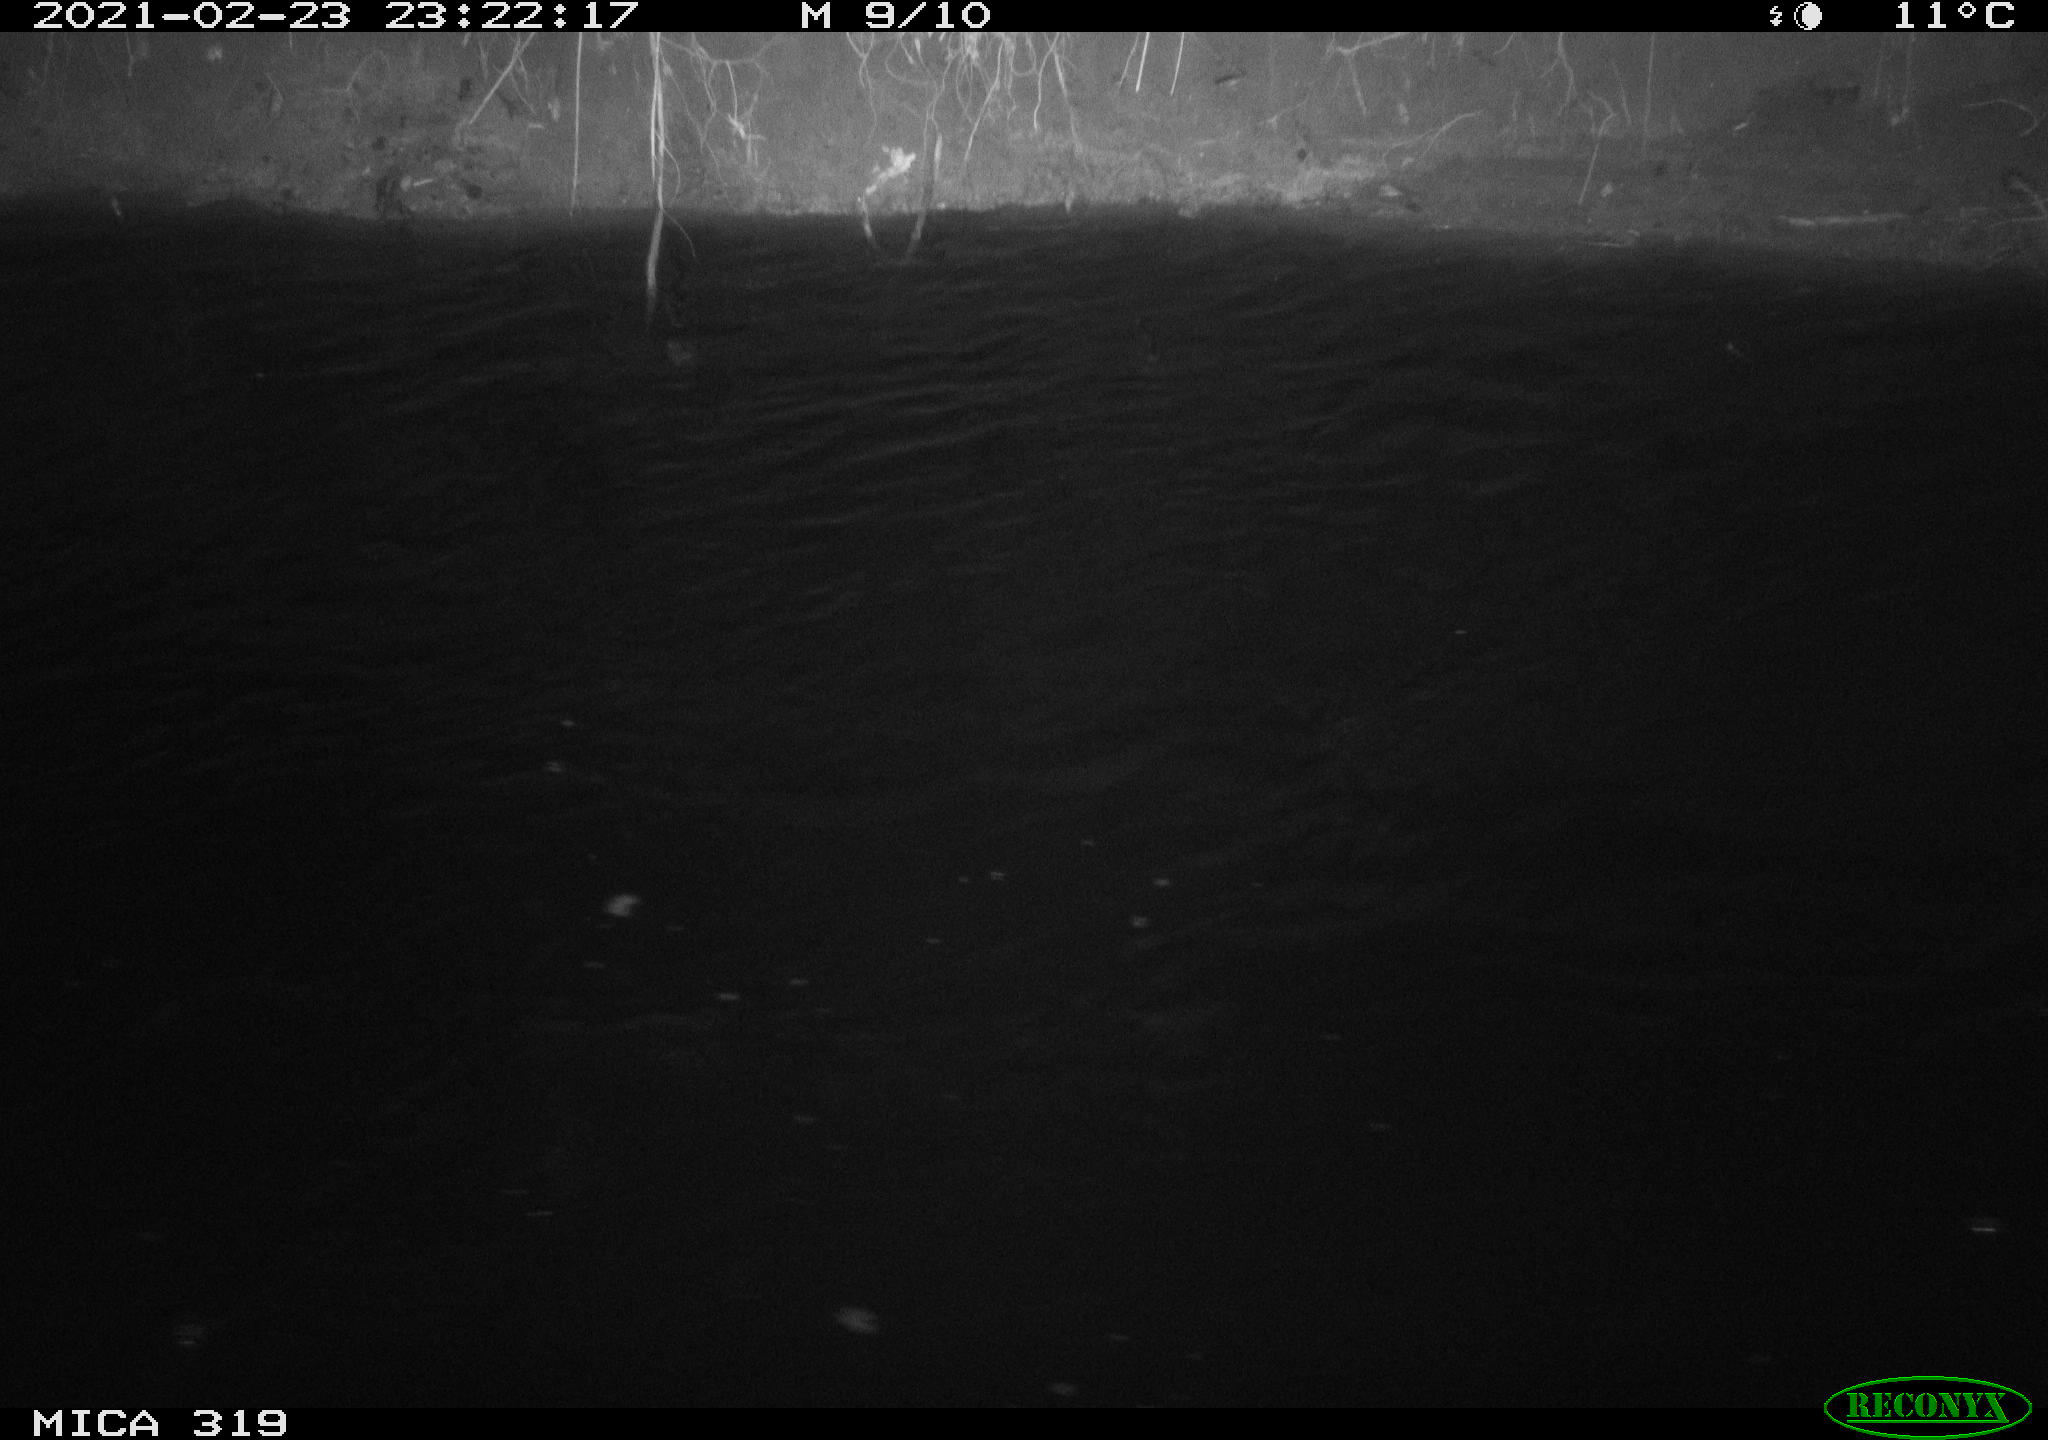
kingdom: Animalia
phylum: Chordata
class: Aves
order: Anseriformes
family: Anatidae
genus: Anas
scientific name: Anas platyrhynchos
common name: Mallard
